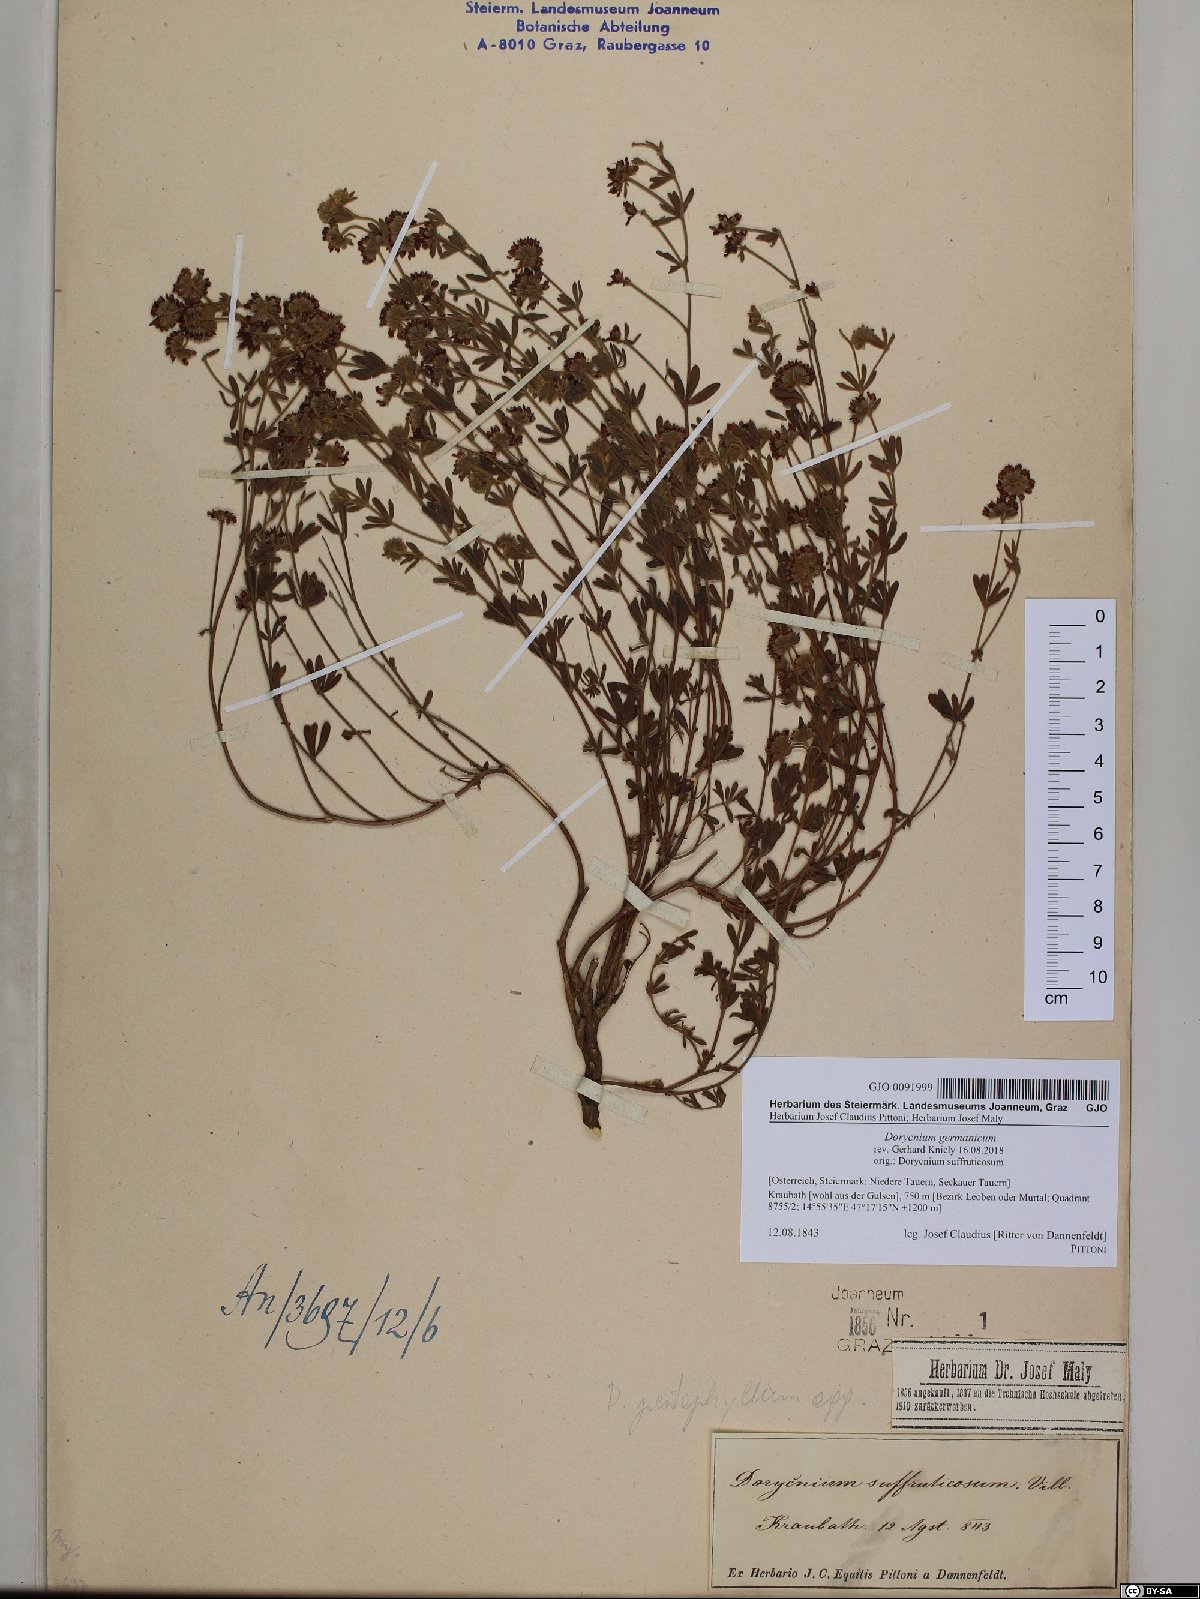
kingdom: Plantae
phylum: Tracheophyta
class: Magnoliopsida
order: Fabales
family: Fabaceae
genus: Lotus
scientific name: Lotus germanicus
